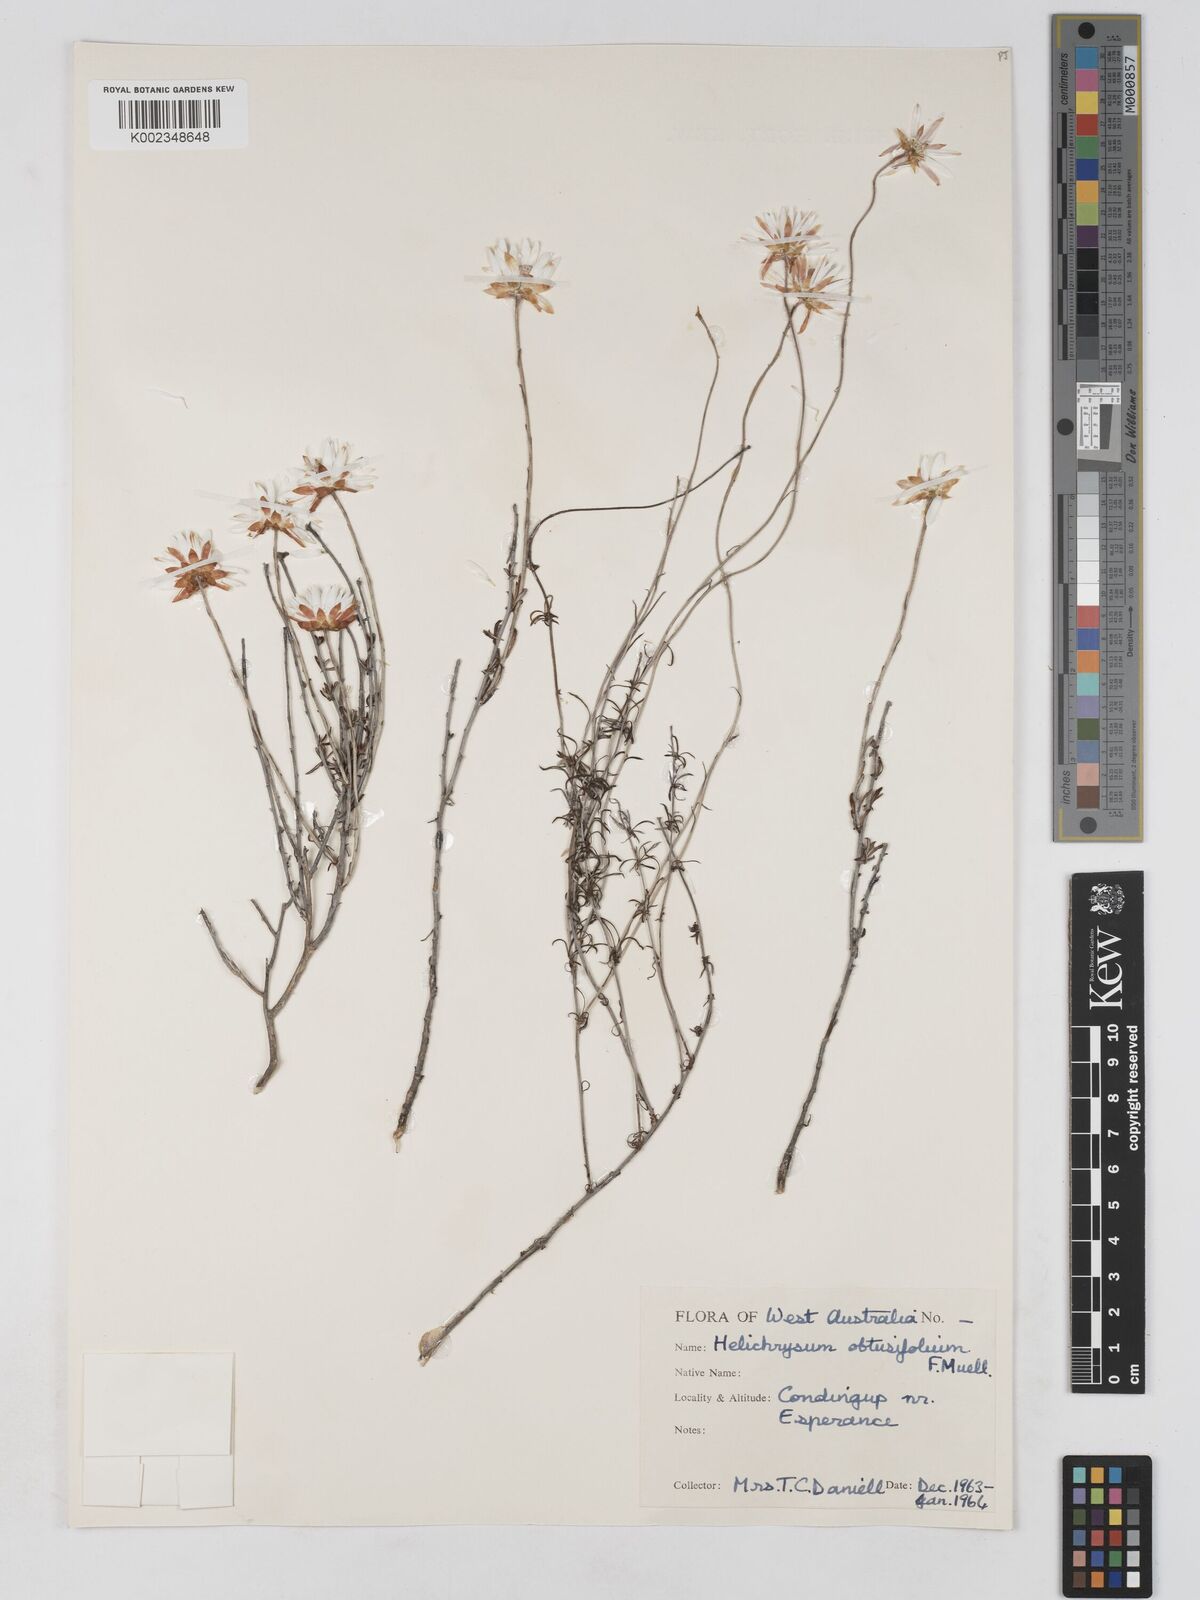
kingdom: Plantae
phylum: Tracheophyta
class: Magnoliopsida
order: Asterales
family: Asteraceae
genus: Argentipallium
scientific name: Argentipallium obtusifolium
